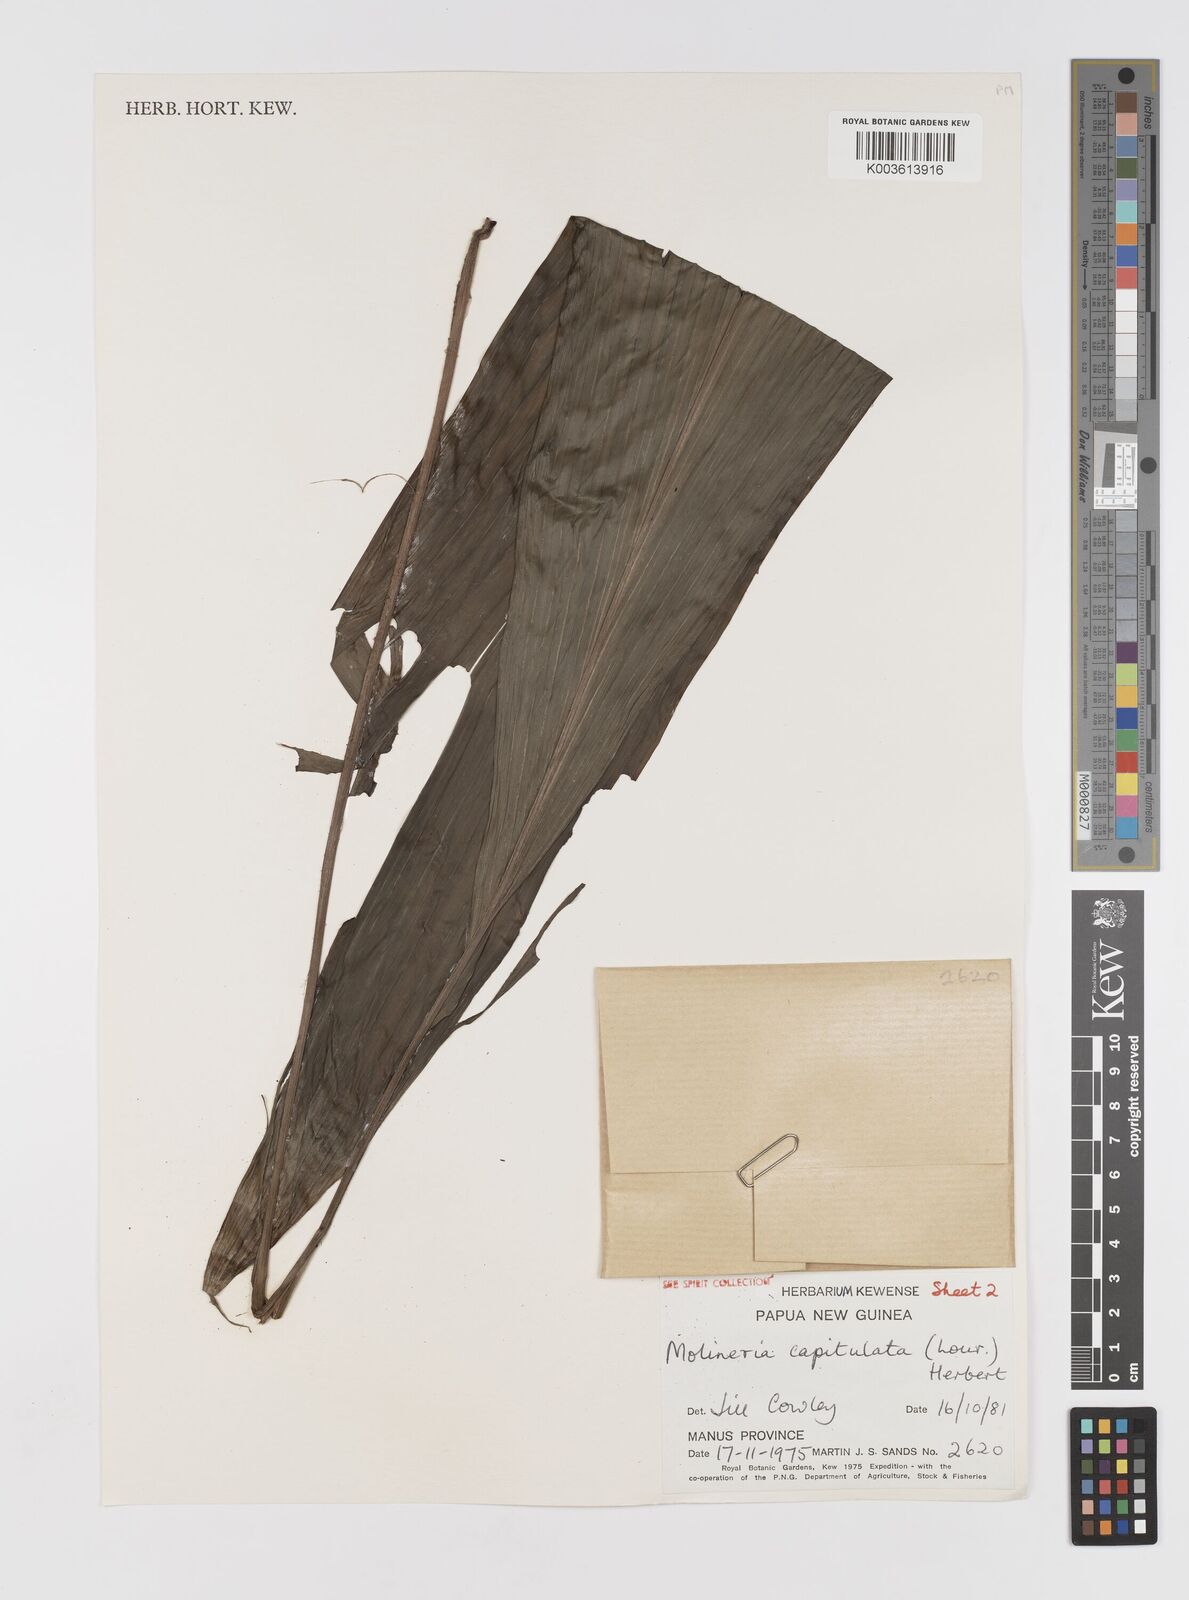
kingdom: Plantae
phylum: Tracheophyta
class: Liliopsida
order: Asparagales
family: Hypoxidaceae
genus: Curculigo
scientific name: Curculigo capitulata
